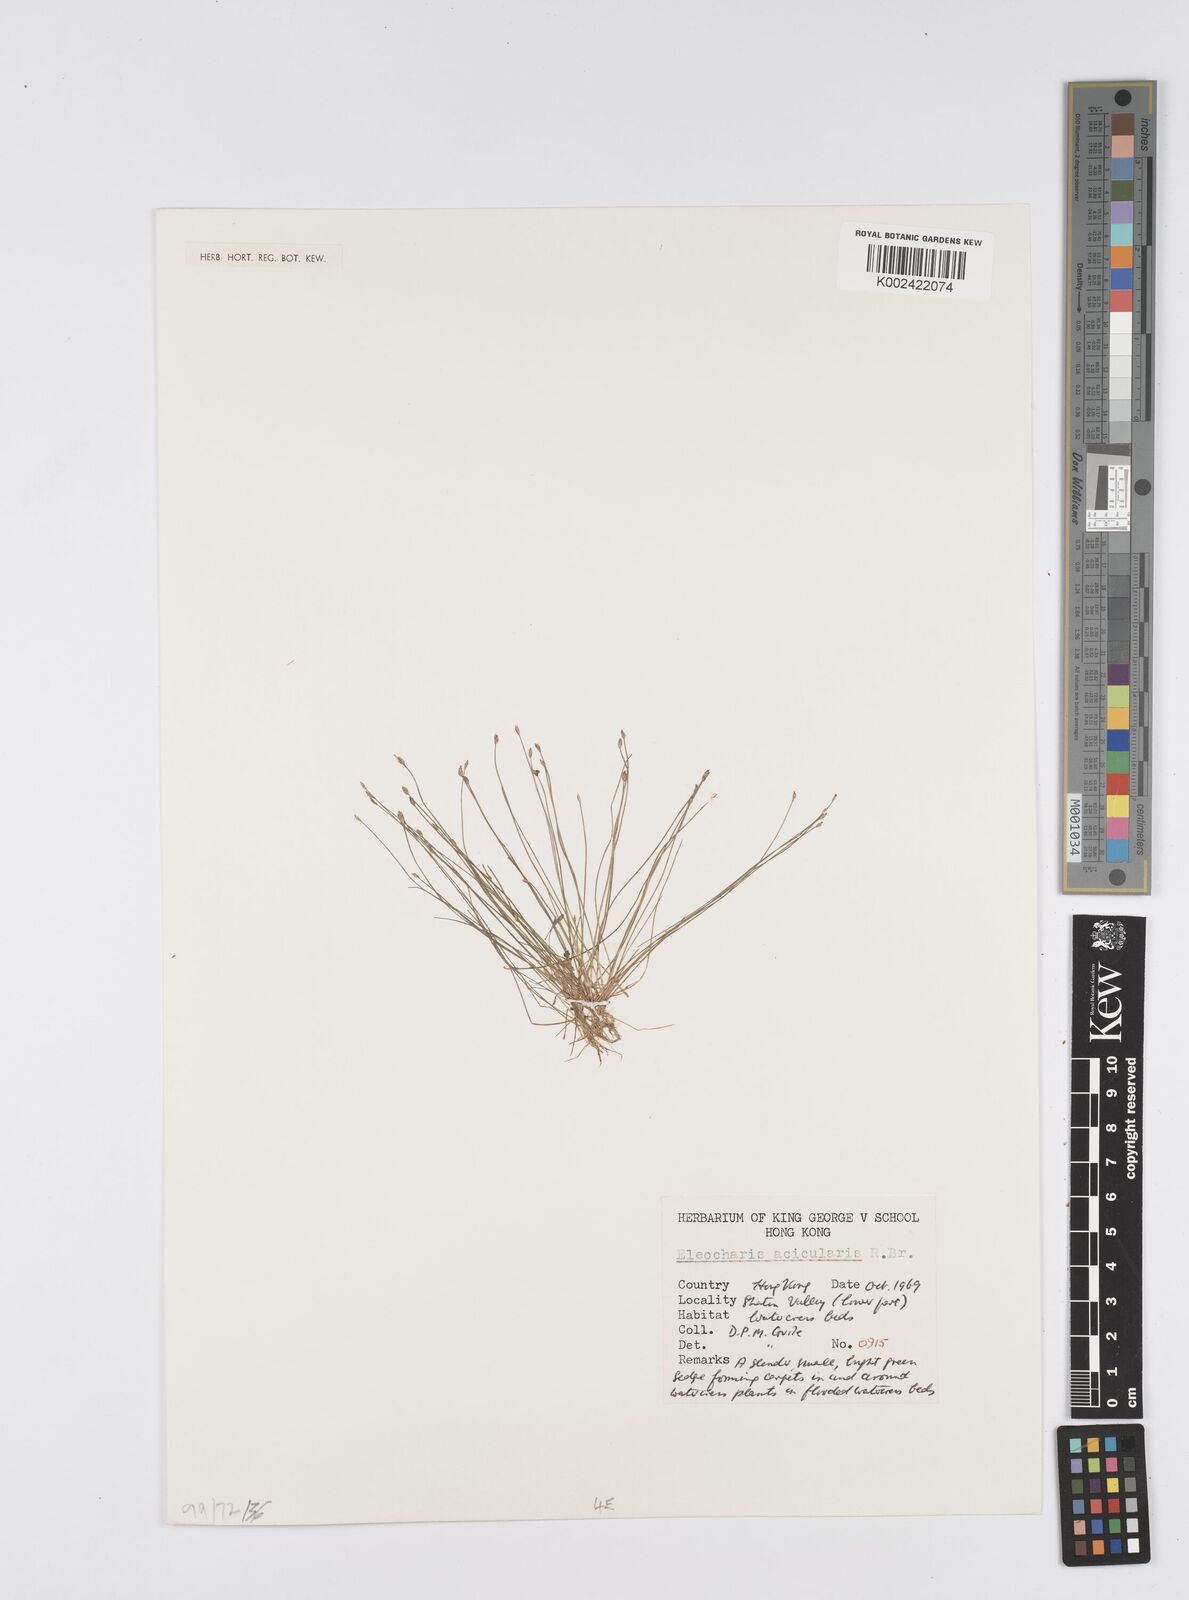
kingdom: Plantae
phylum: Tracheophyta
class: Liliopsida
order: Poales
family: Cyperaceae
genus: Eleocharis
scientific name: Eleocharis acicularis
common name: Needle spike-rush
